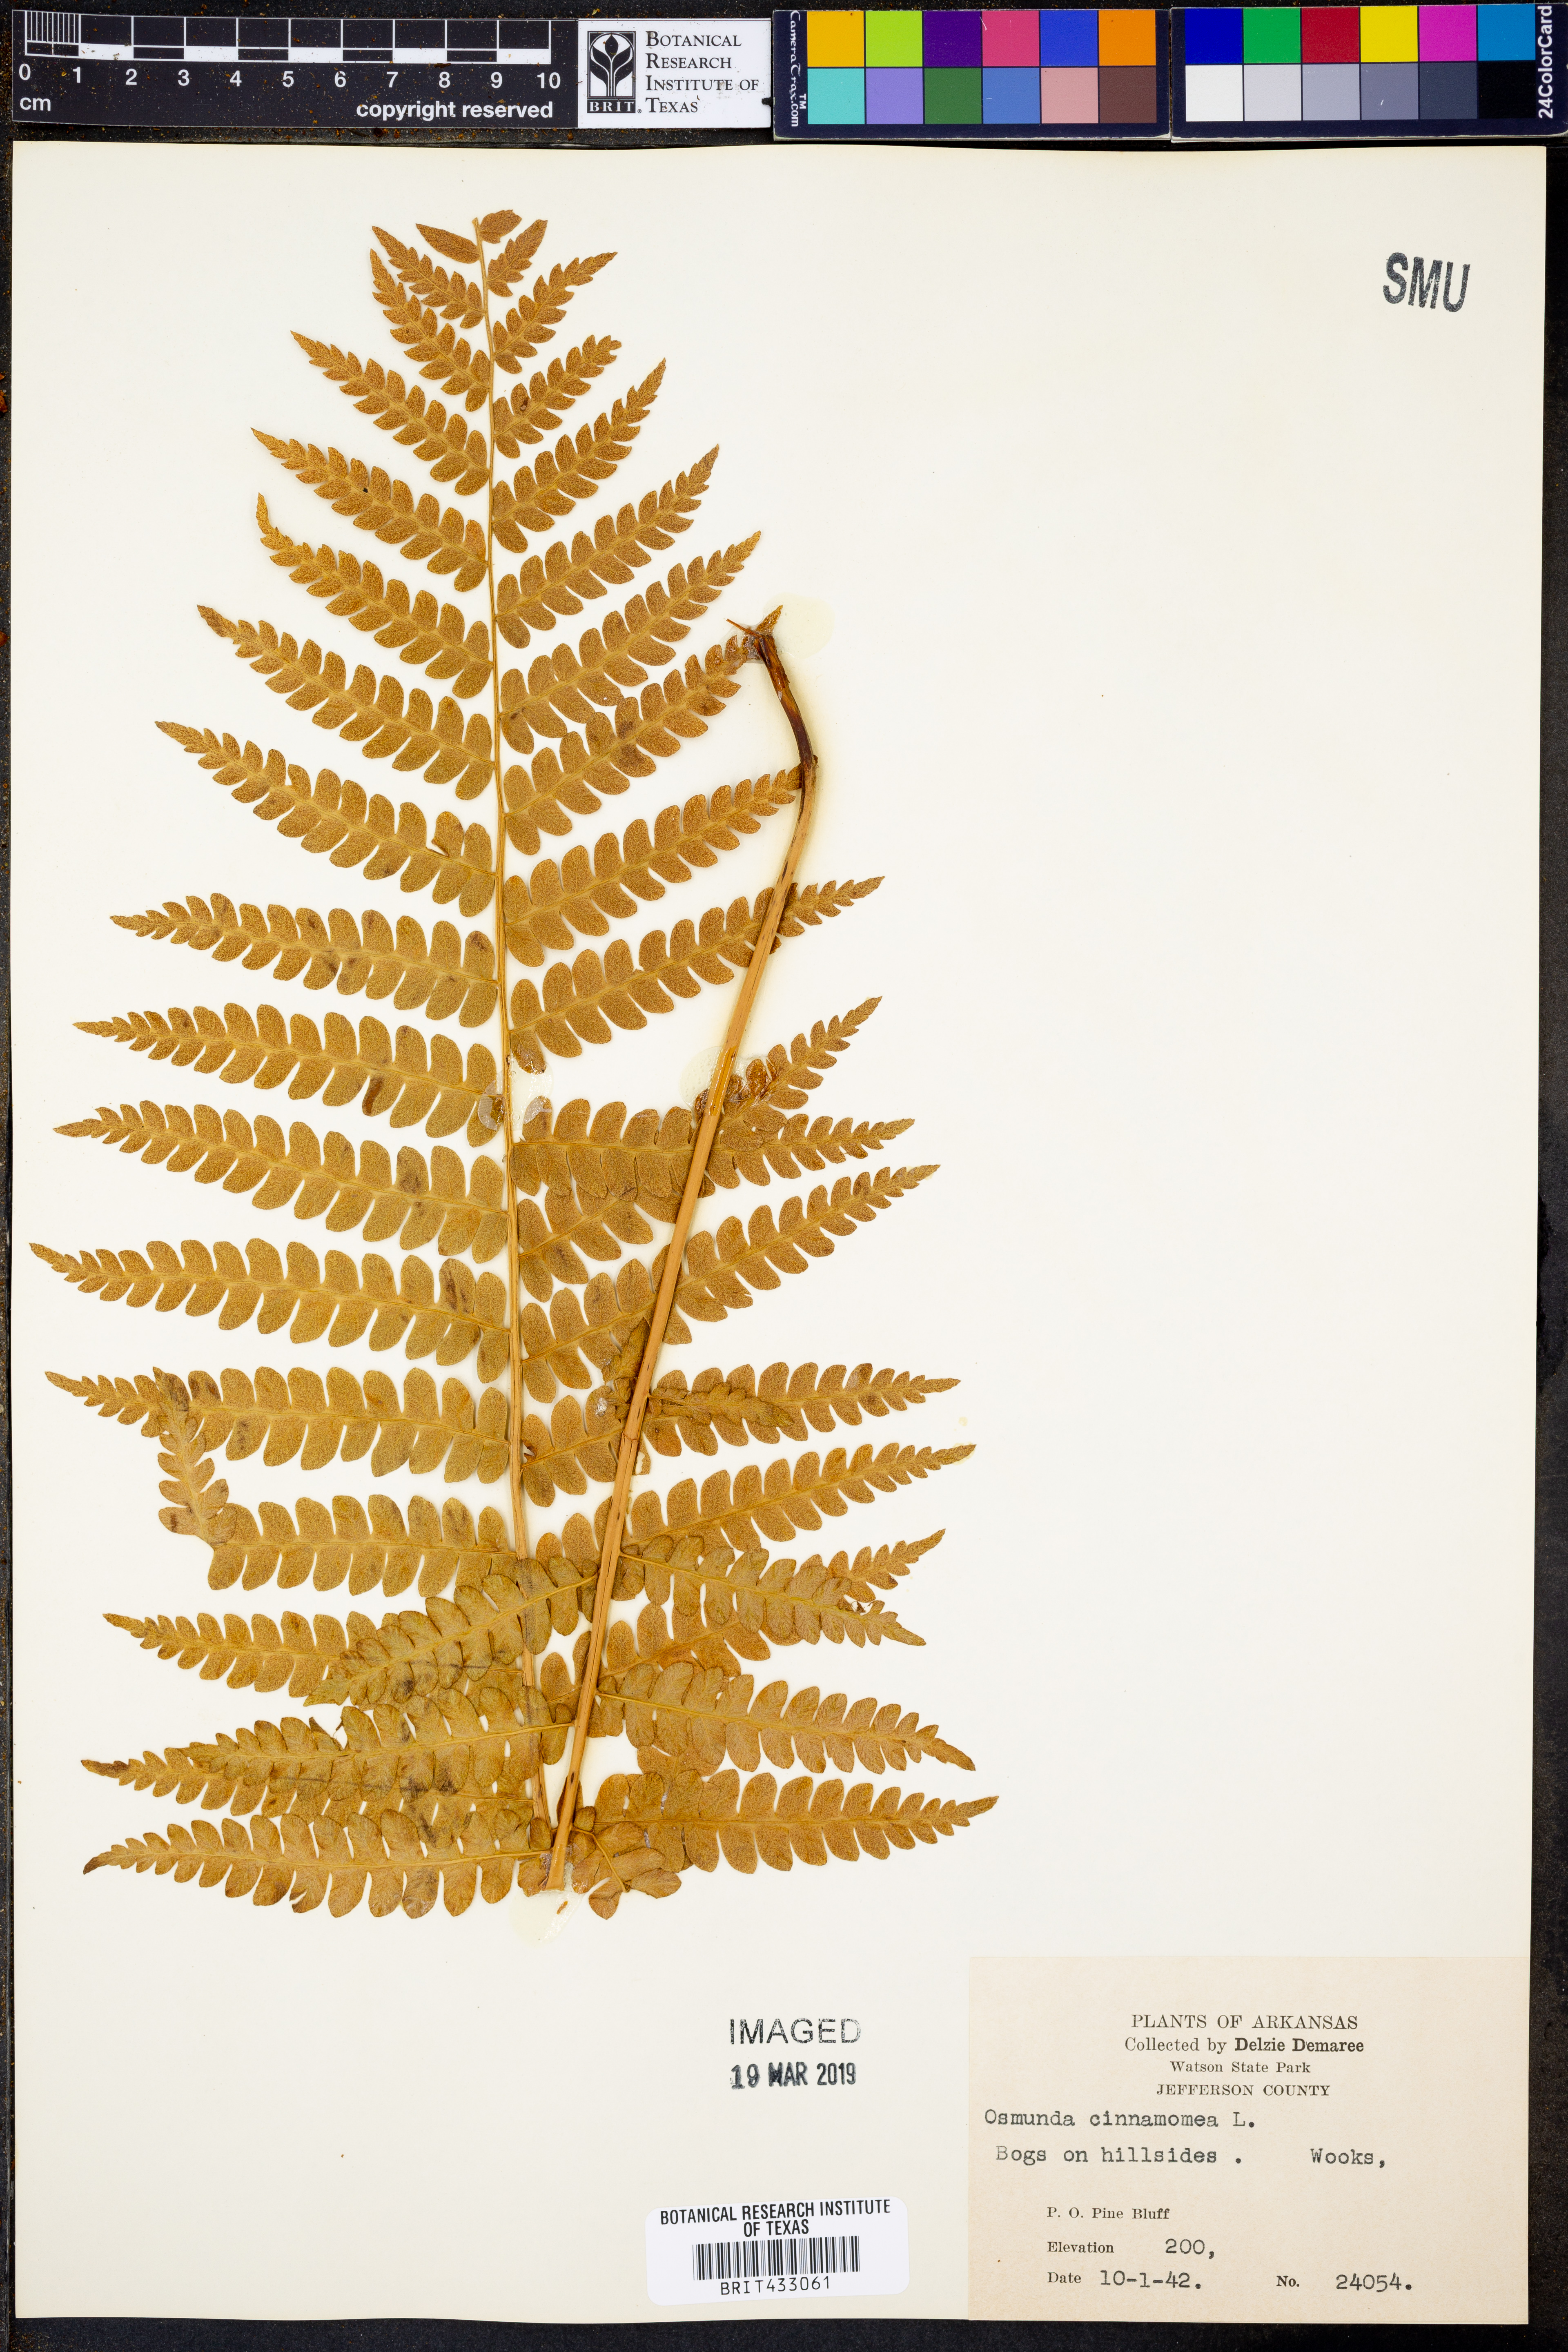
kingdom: Plantae
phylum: Tracheophyta
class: Polypodiopsida
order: Osmundales
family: Osmundaceae
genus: Osmundastrum
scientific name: Osmundastrum cinnamomeum
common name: Cinnamon fern
